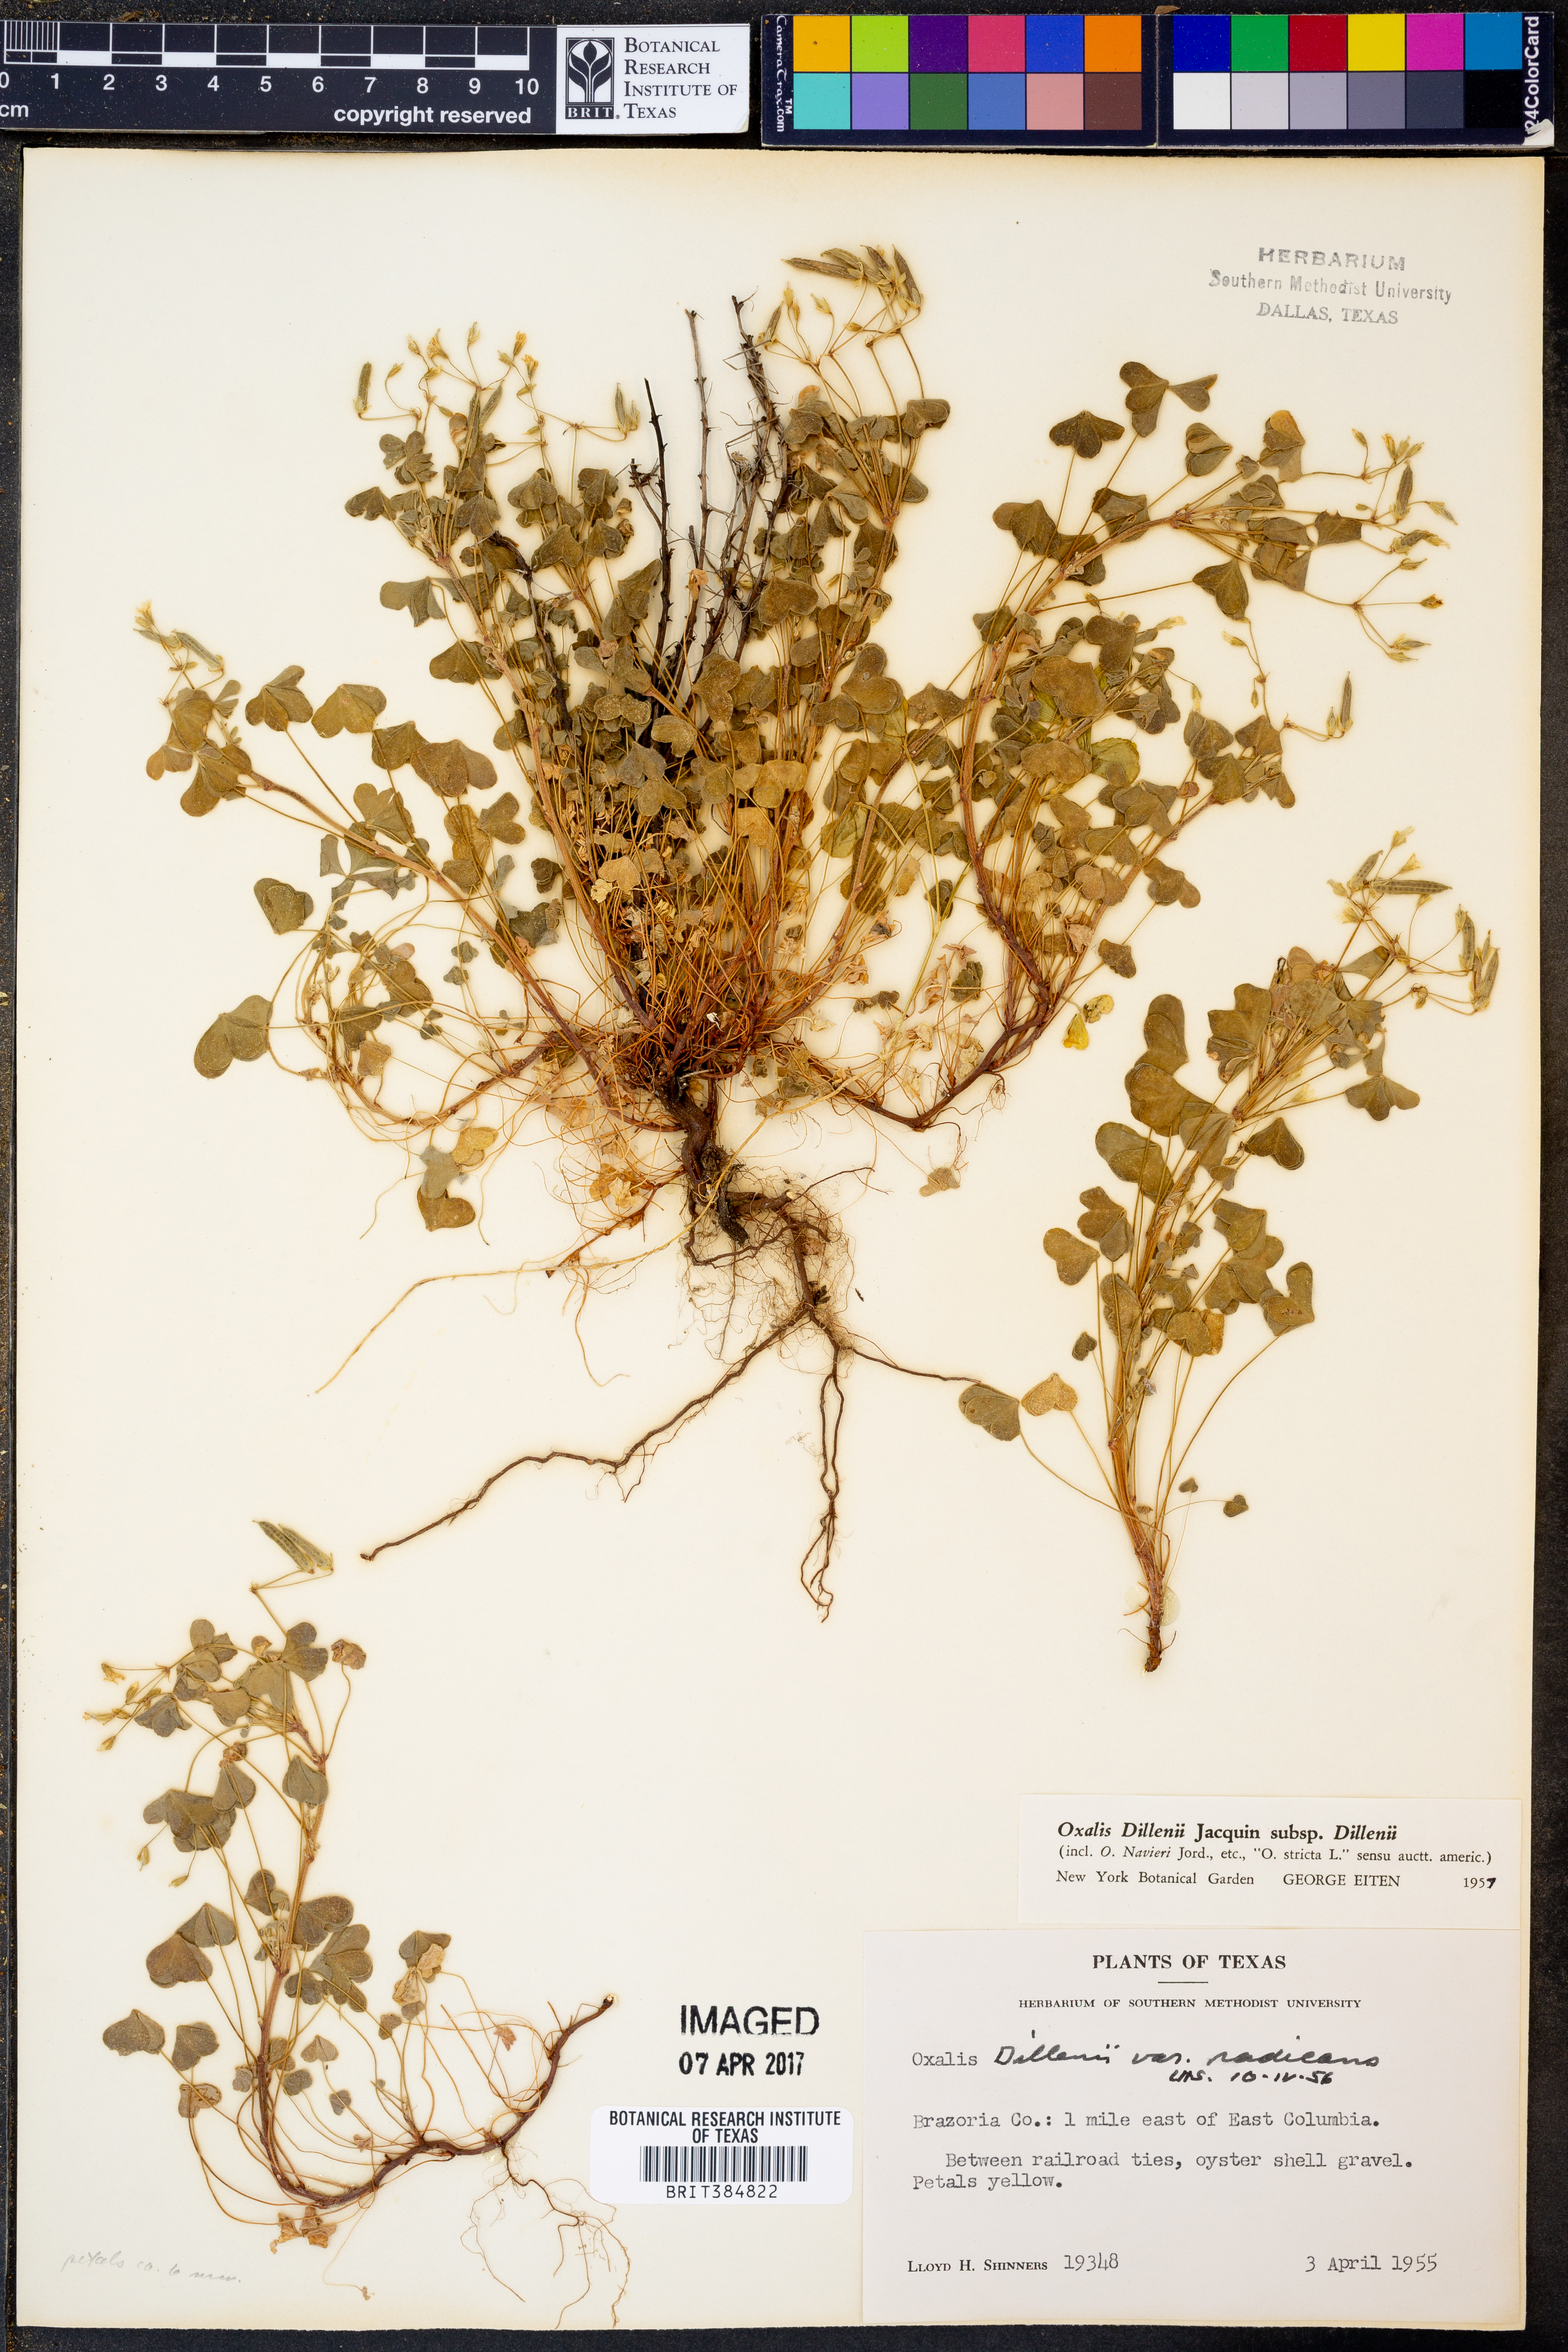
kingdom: Plantae
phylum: Tracheophyta
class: Magnoliopsida
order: Oxalidales
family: Oxalidaceae
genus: Oxalis
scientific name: Oxalis dillenii
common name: Sussex yellow-sorrel
